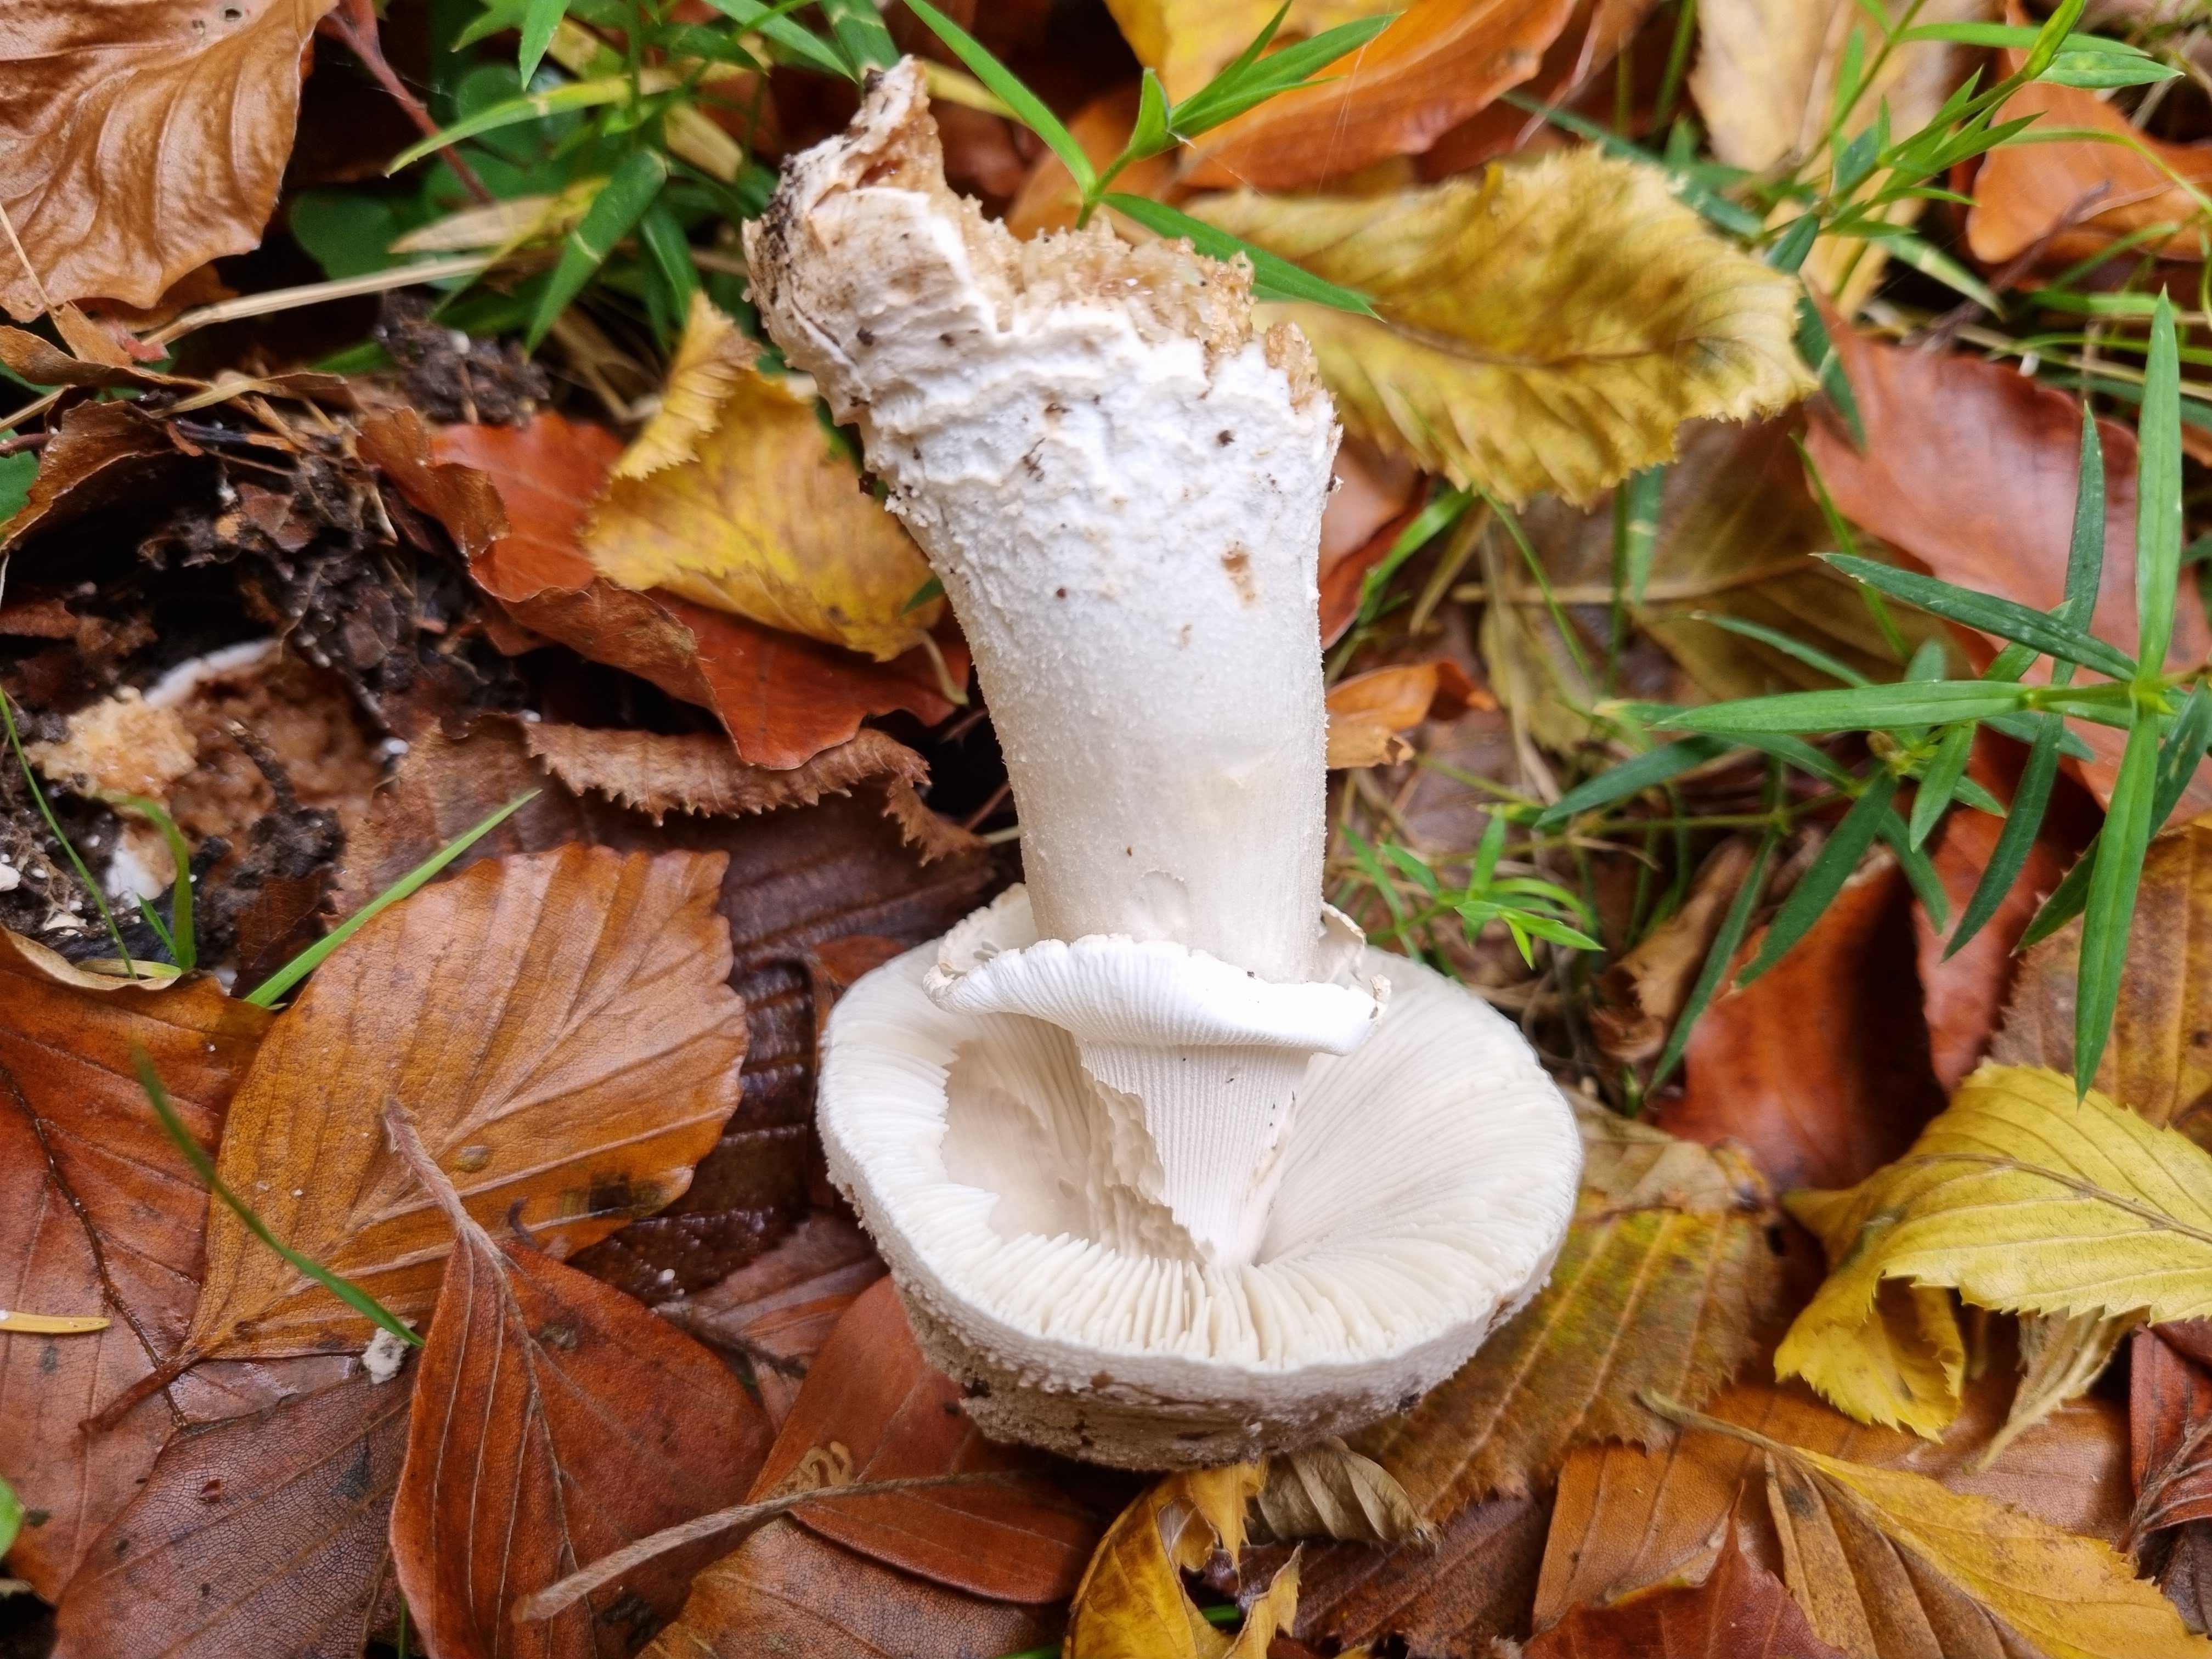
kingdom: Fungi
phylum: Basidiomycota
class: Agaricomycetes
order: Agaricales
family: Amanitaceae
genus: Amanita
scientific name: Amanita
